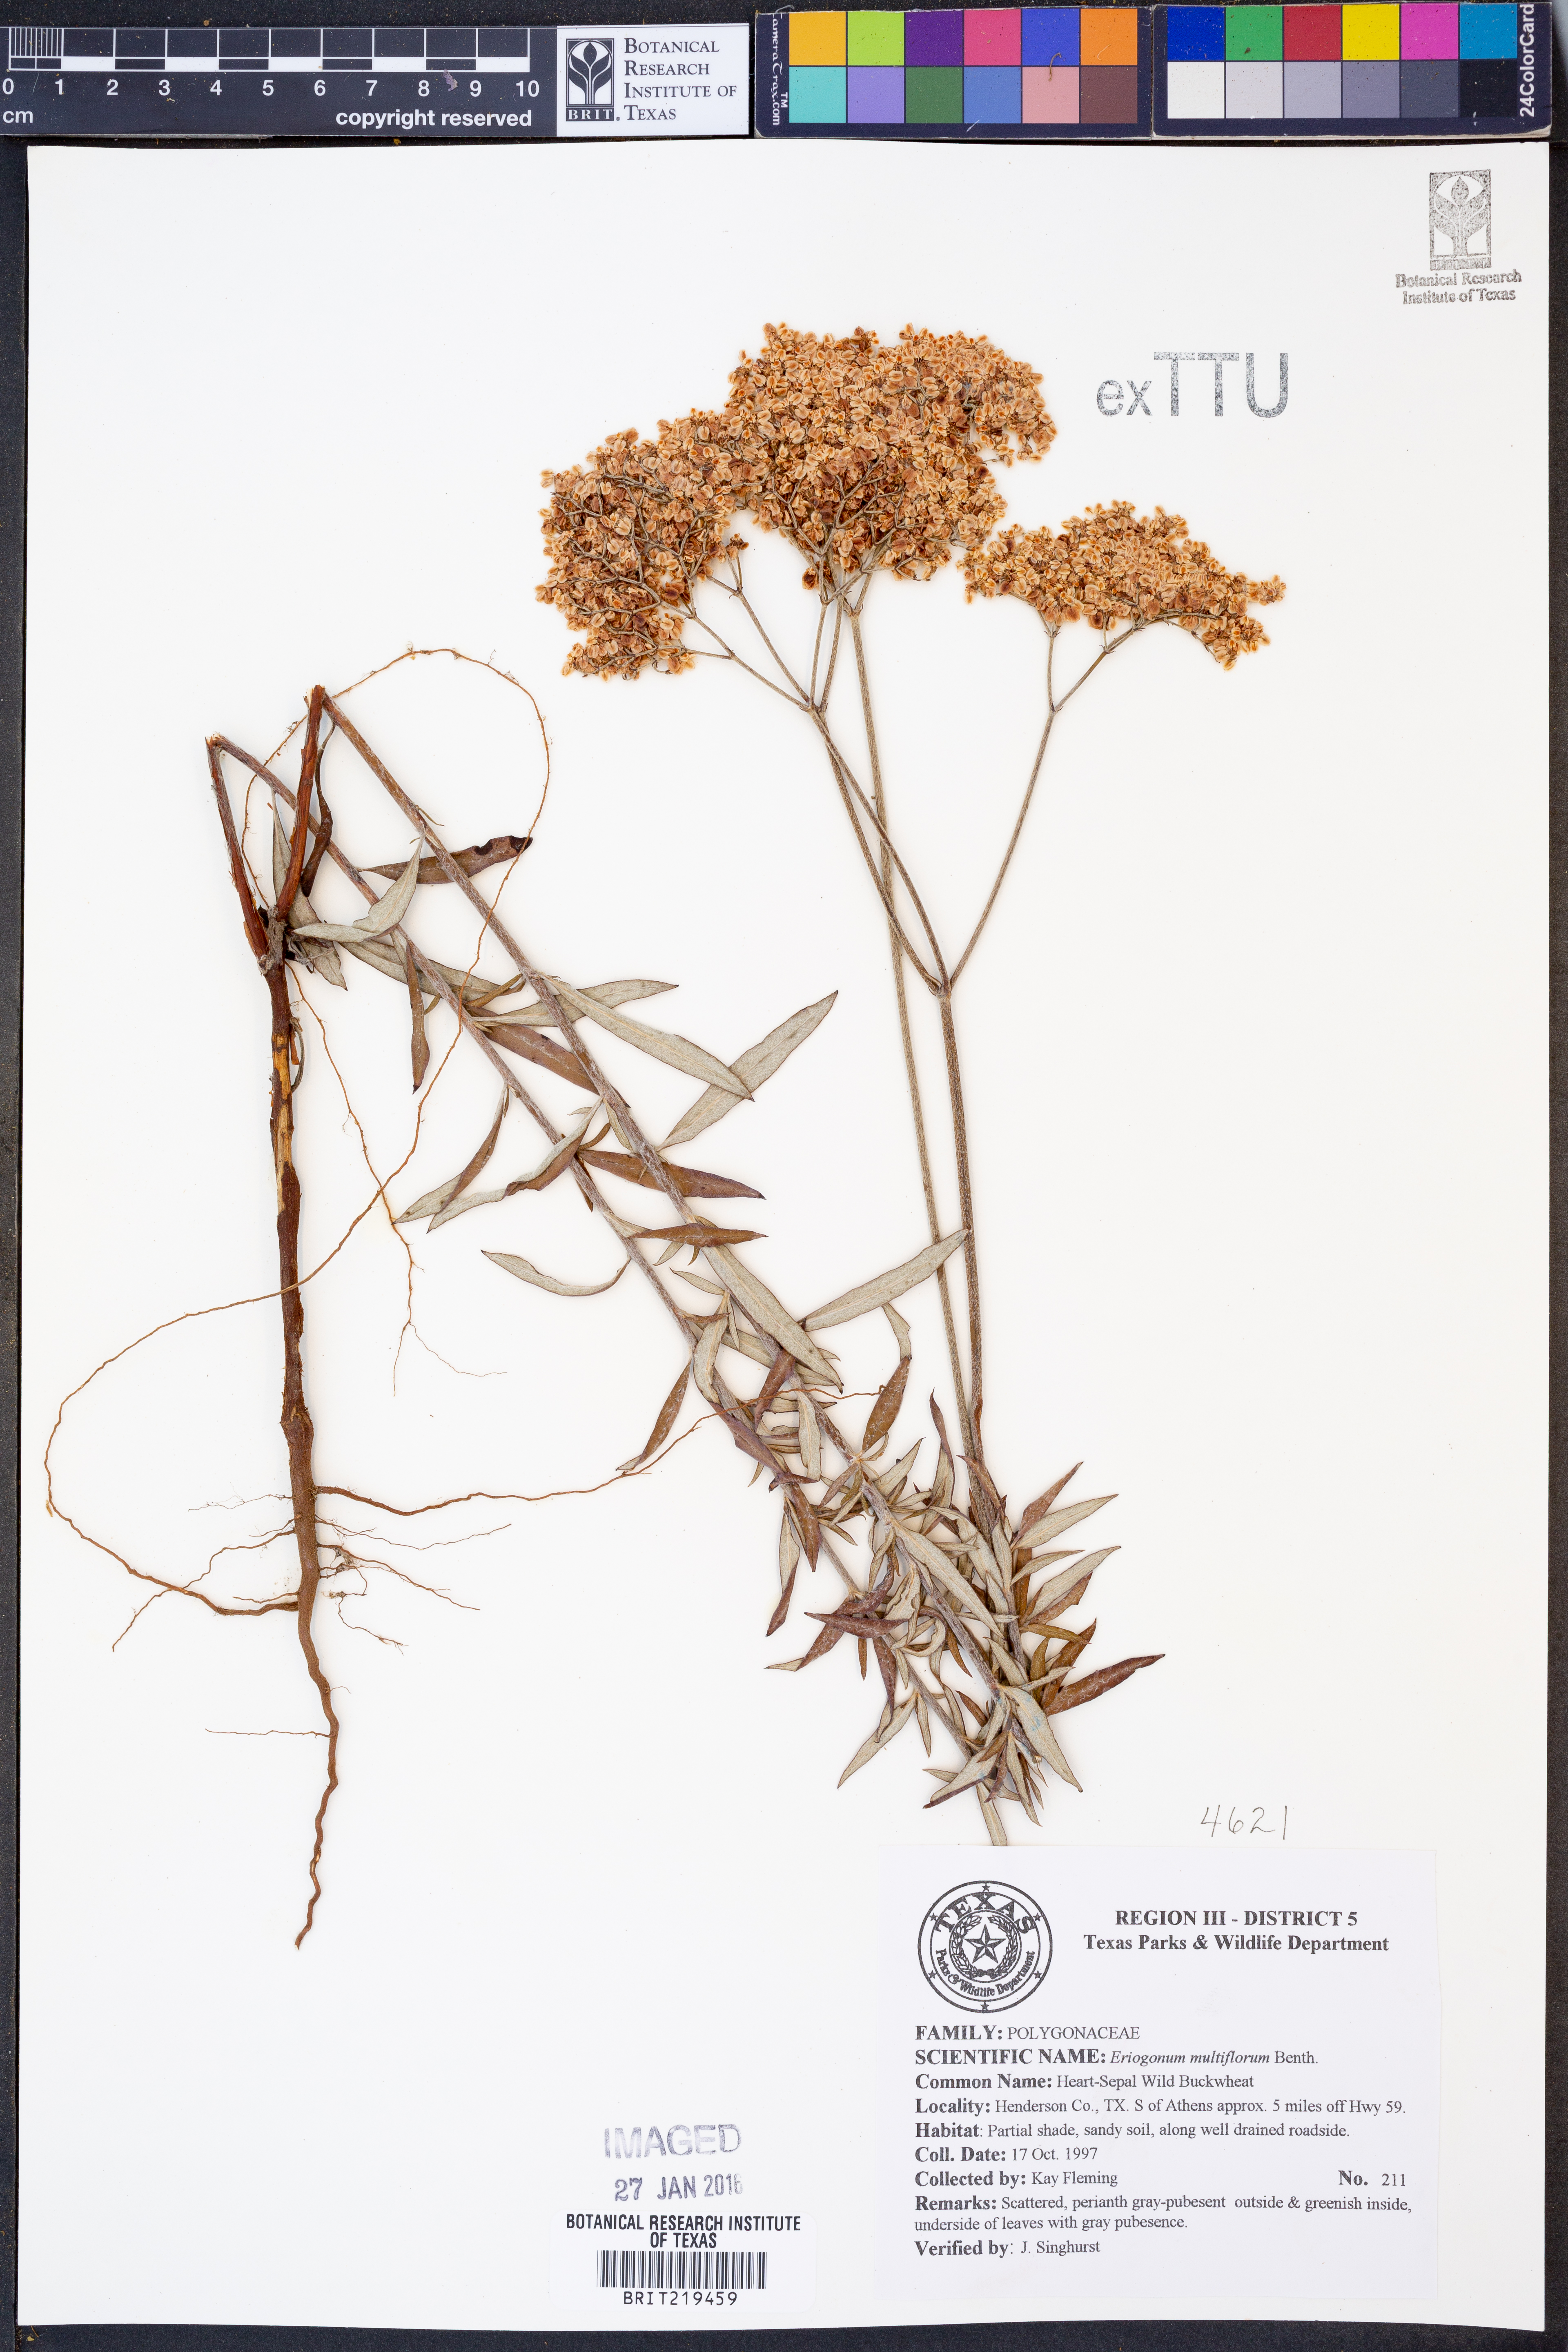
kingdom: Plantae
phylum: Tracheophyta
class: Magnoliopsida
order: Caryophyllales
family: Polygonaceae
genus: Eriogonum
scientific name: Eriogonum multiflorum
